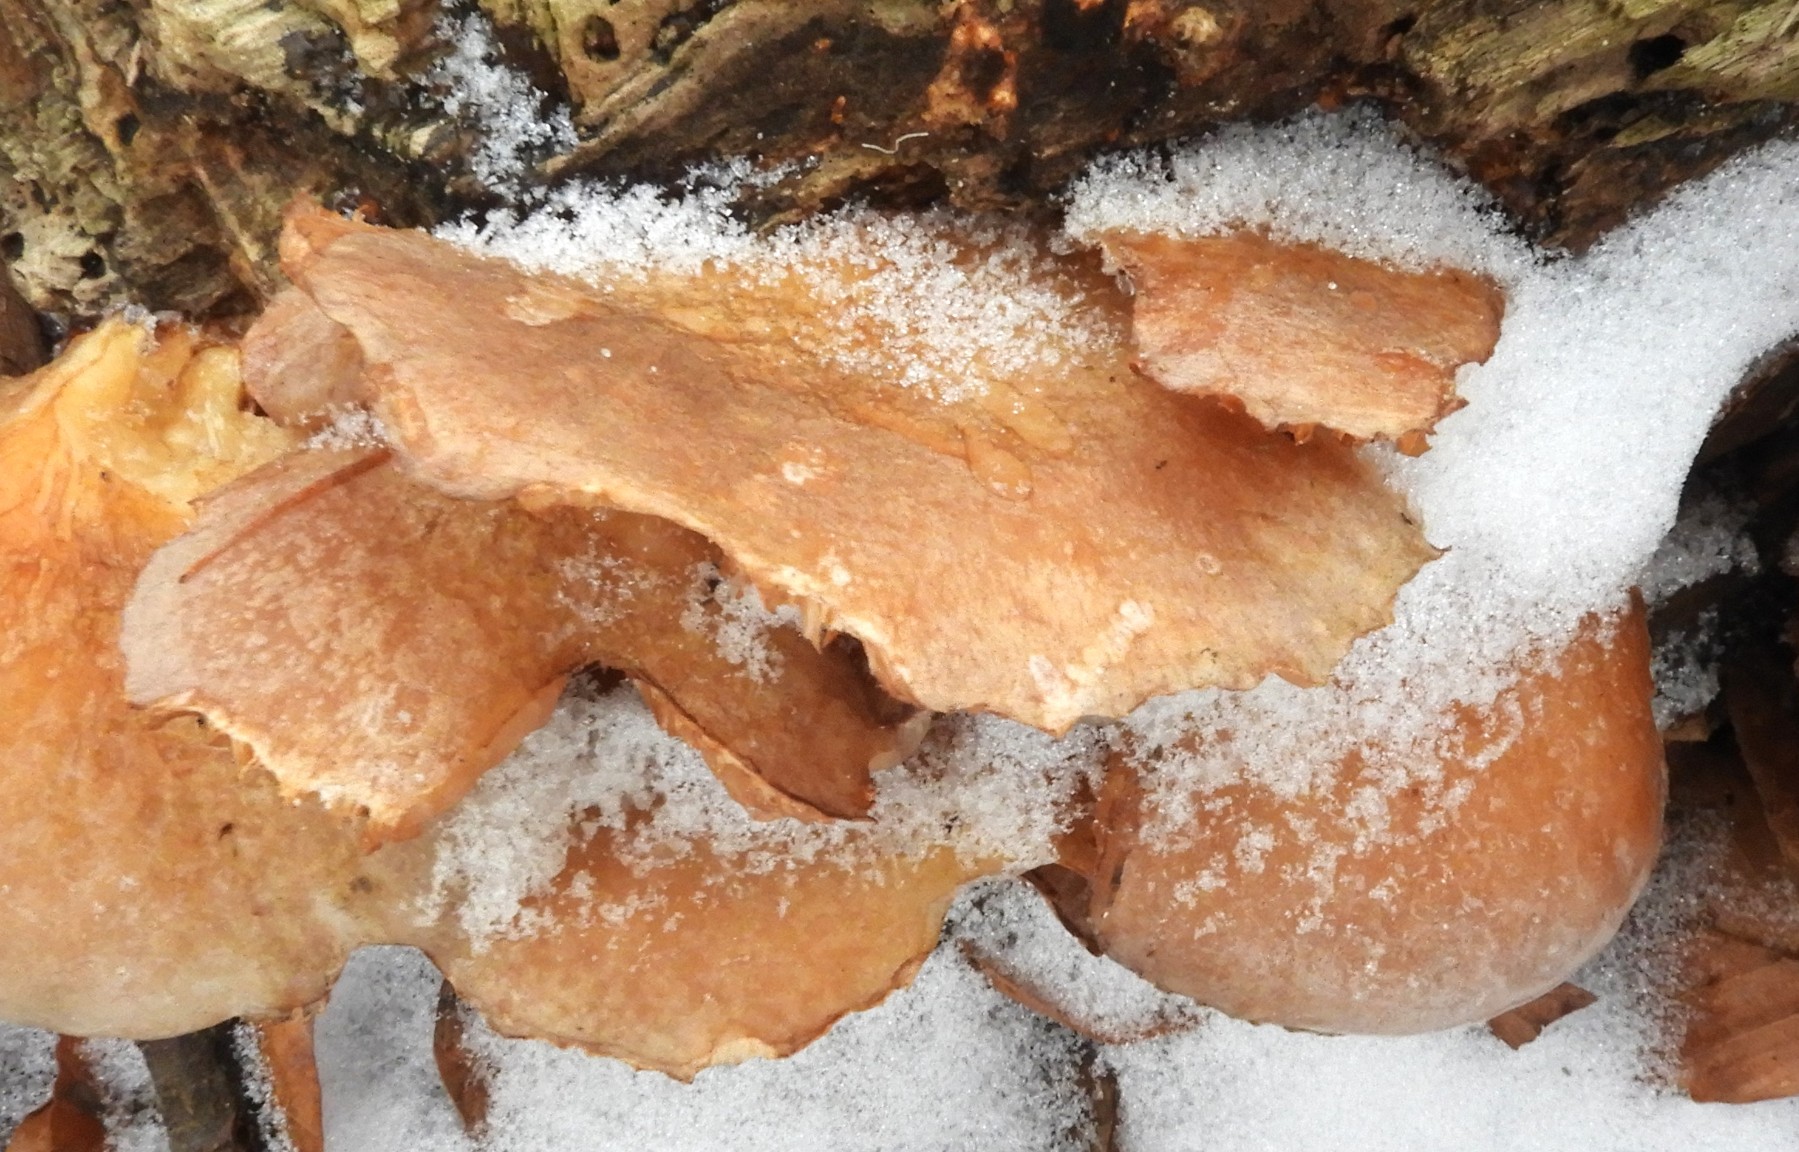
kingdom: Fungi
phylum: Basidiomycota
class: Agaricomycetes
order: Agaricales
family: Sarcomyxaceae
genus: Sarcomyxa
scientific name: Sarcomyxa serotina
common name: gummihat
